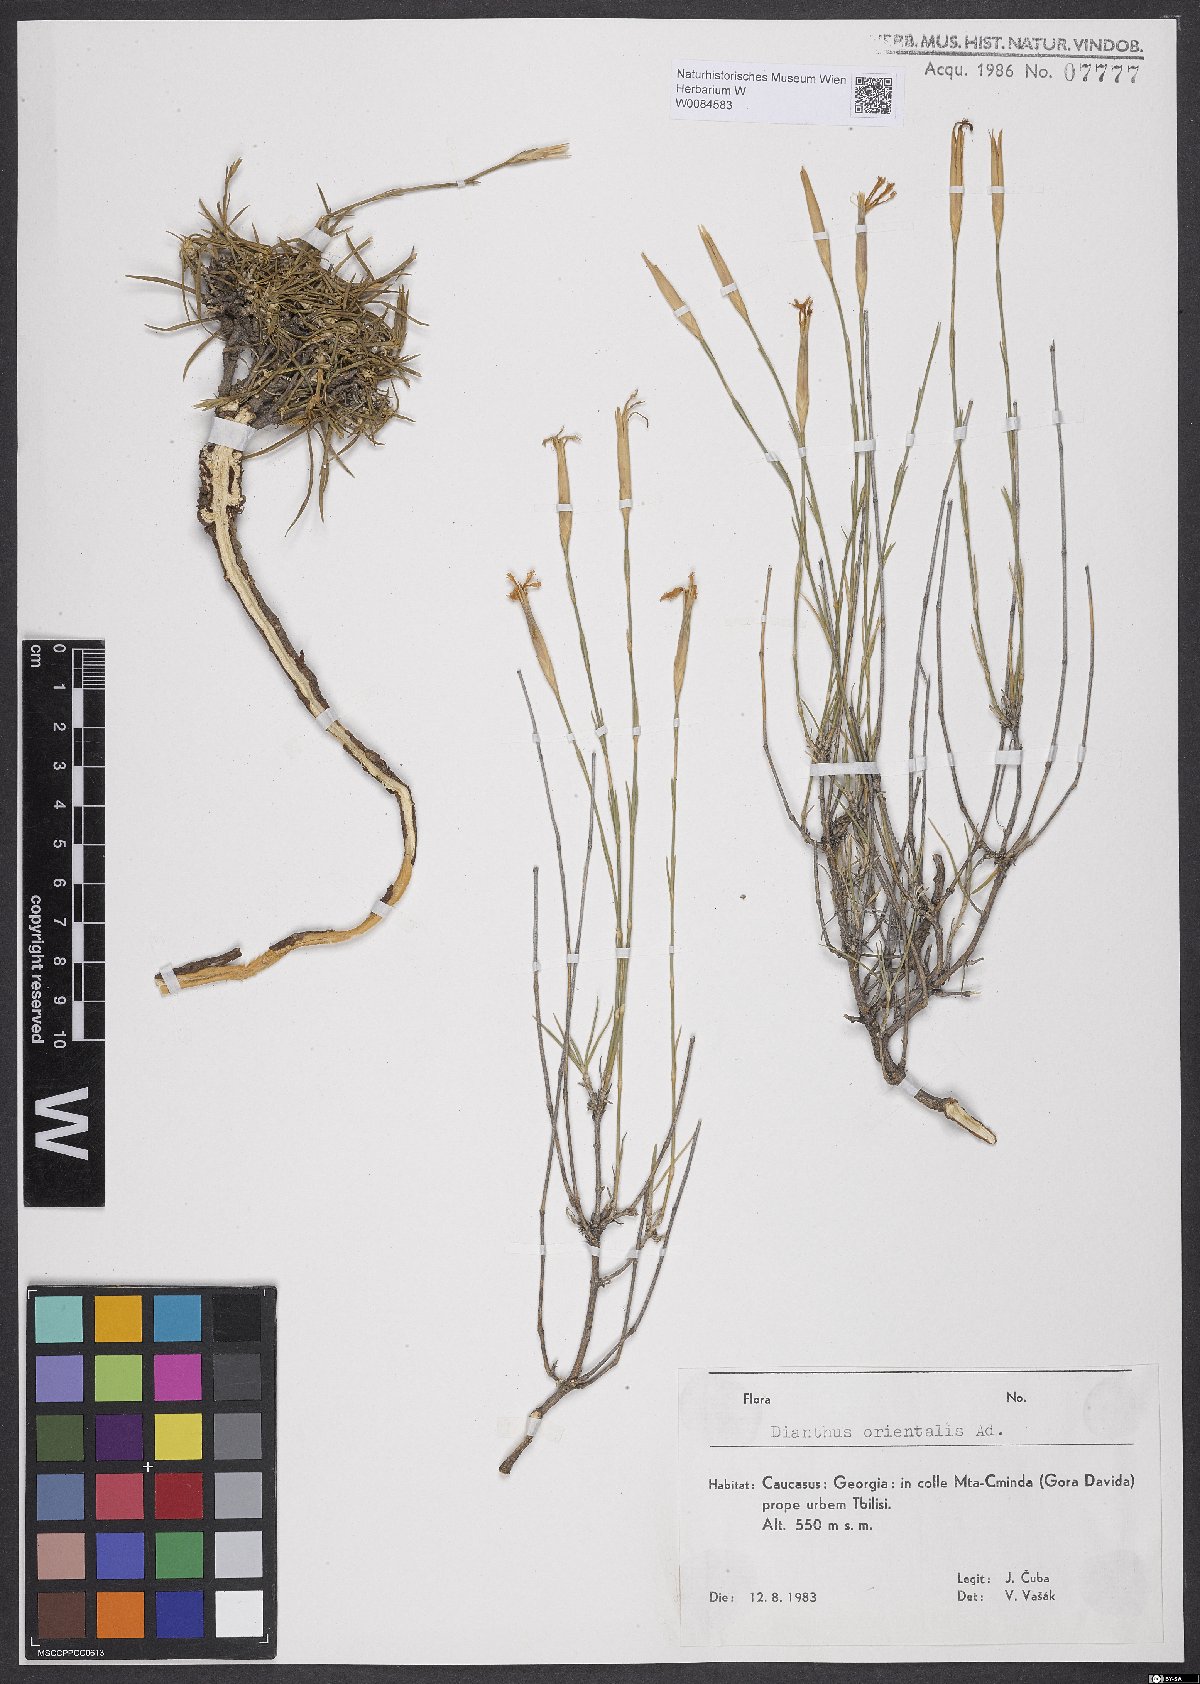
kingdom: Plantae
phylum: Tracheophyta
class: Magnoliopsida
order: Caryophyllales
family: Caryophyllaceae
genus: Dianthus
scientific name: Dianthus orientalis
